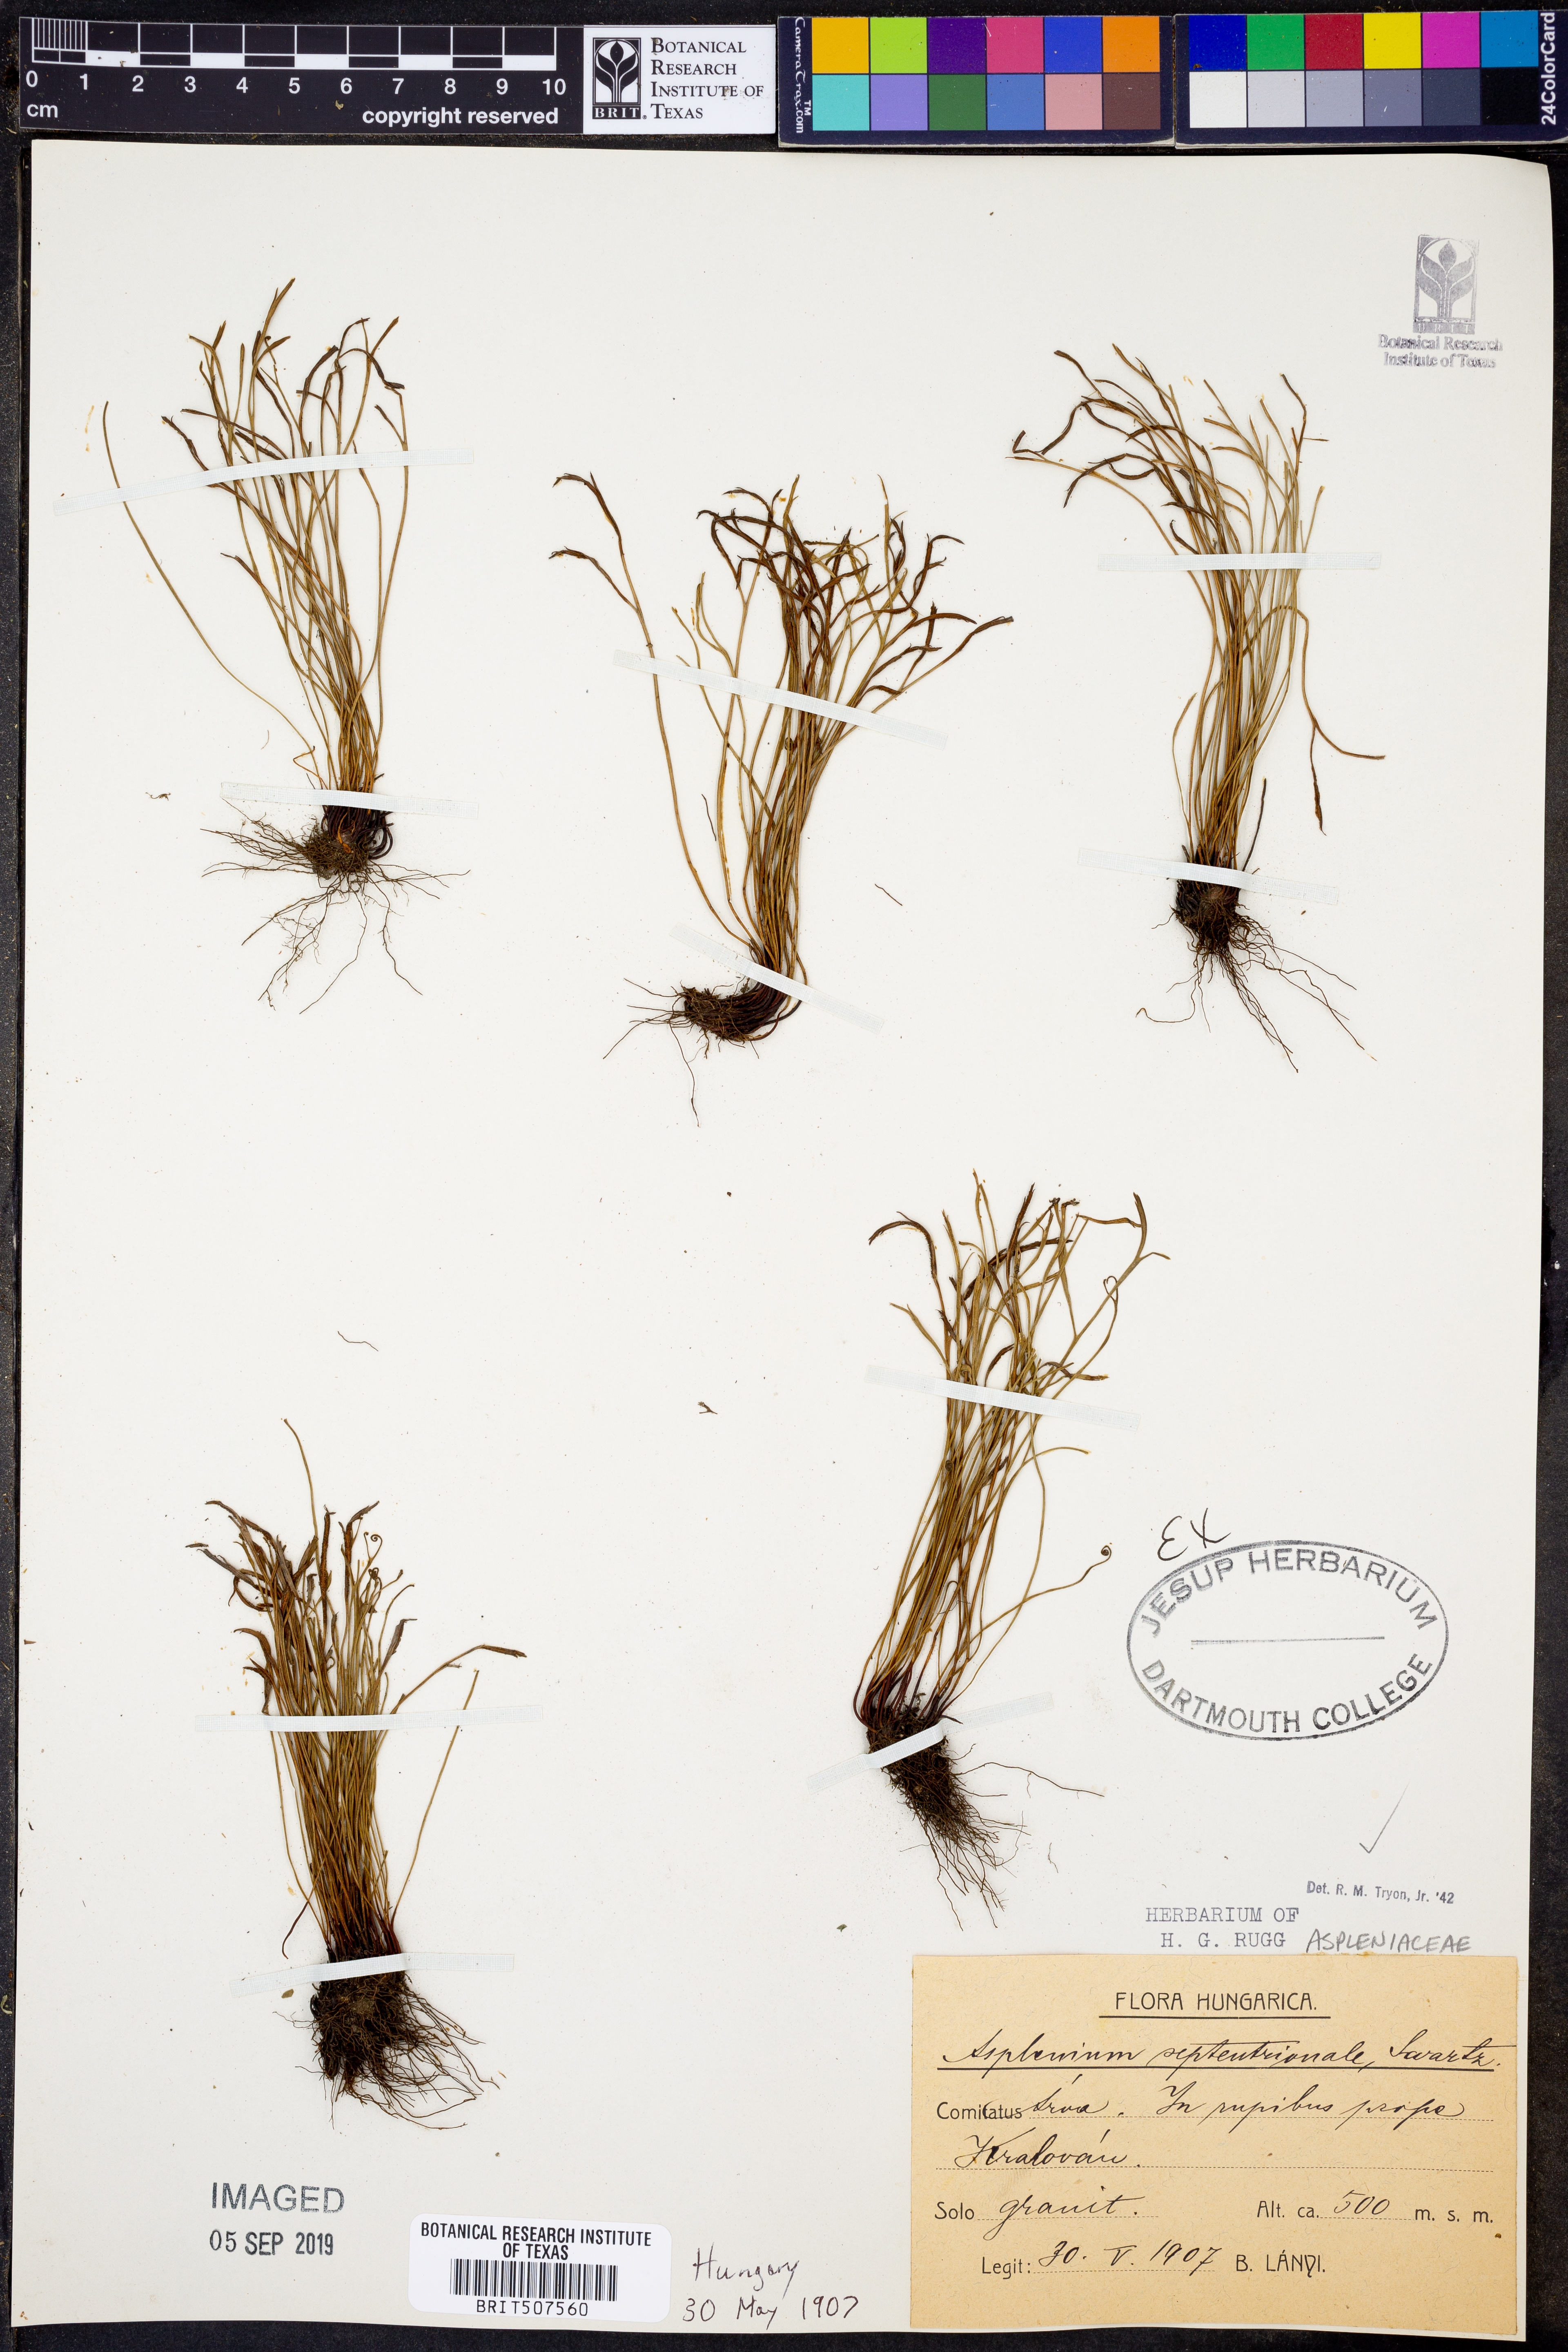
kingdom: Plantae
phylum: Tracheophyta
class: Polypodiopsida
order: Polypodiales
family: Aspleniaceae
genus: Asplenium
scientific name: Asplenium septentrionale
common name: Forked spleenwort
